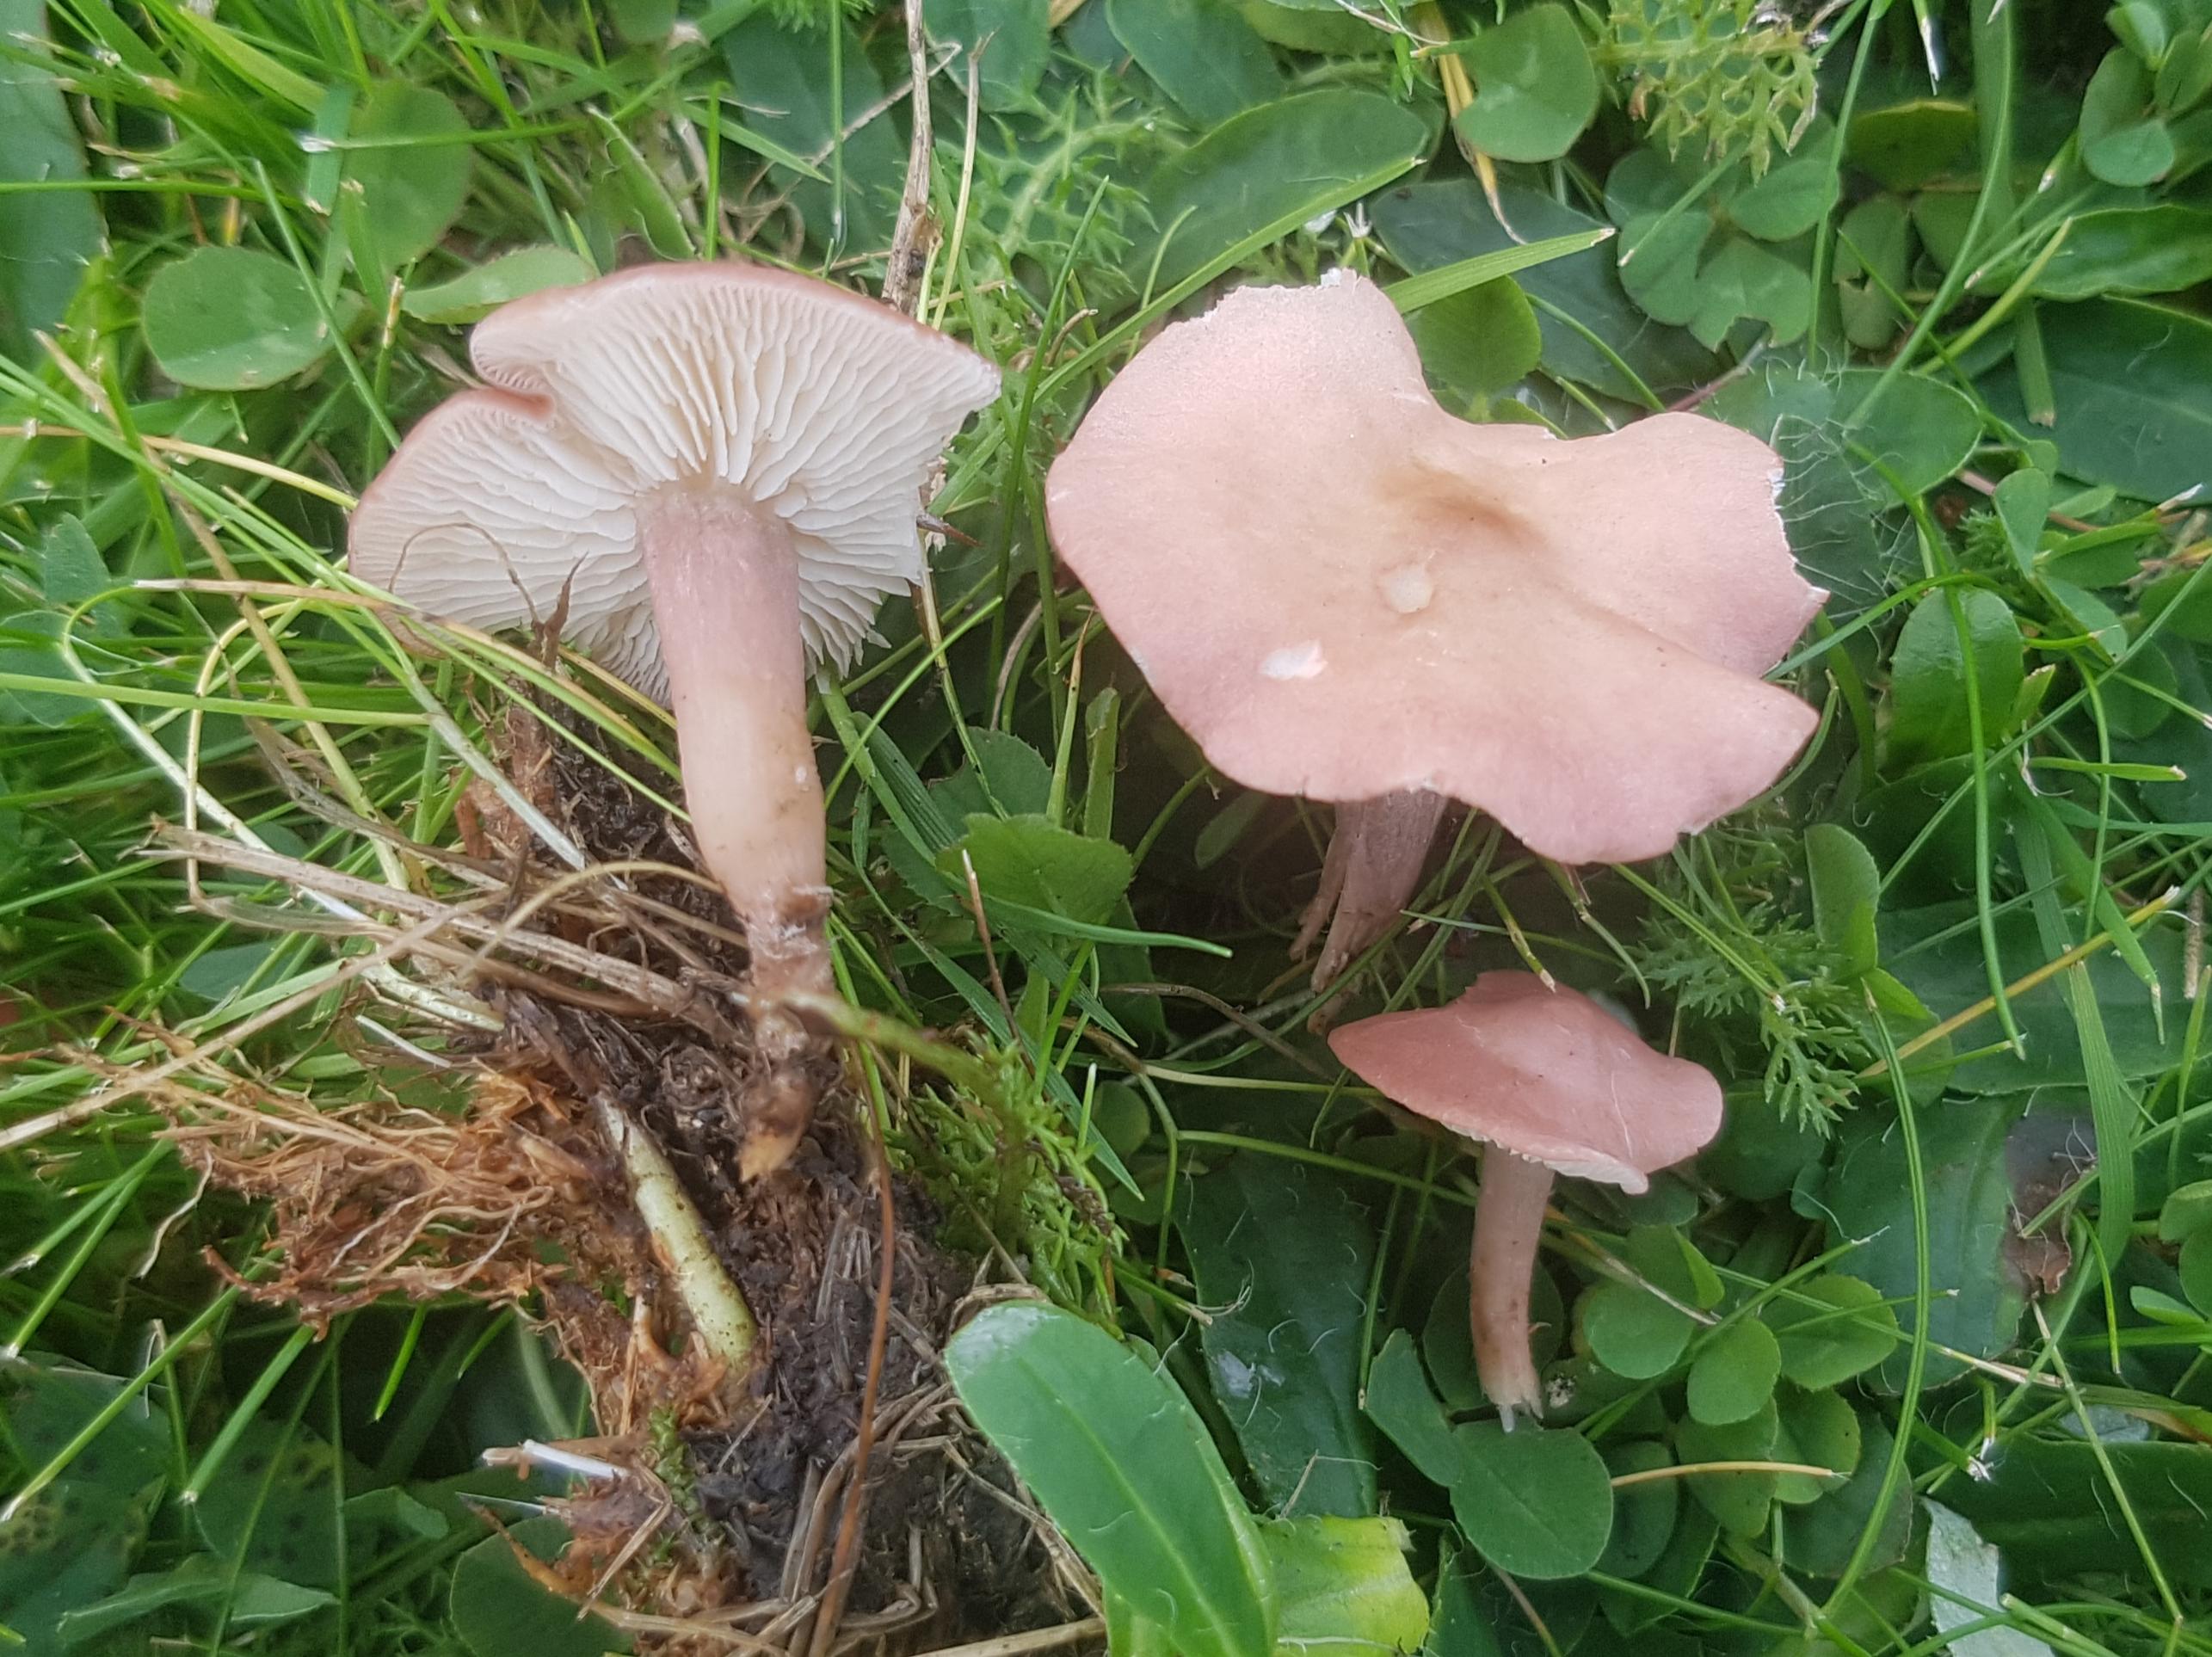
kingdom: Fungi
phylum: Basidiomycota
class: Agaricomycetes
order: Agaricales
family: Lyophyllaceae
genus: Calocybe
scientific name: Calocybe carnea
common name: rosa fagerhat
